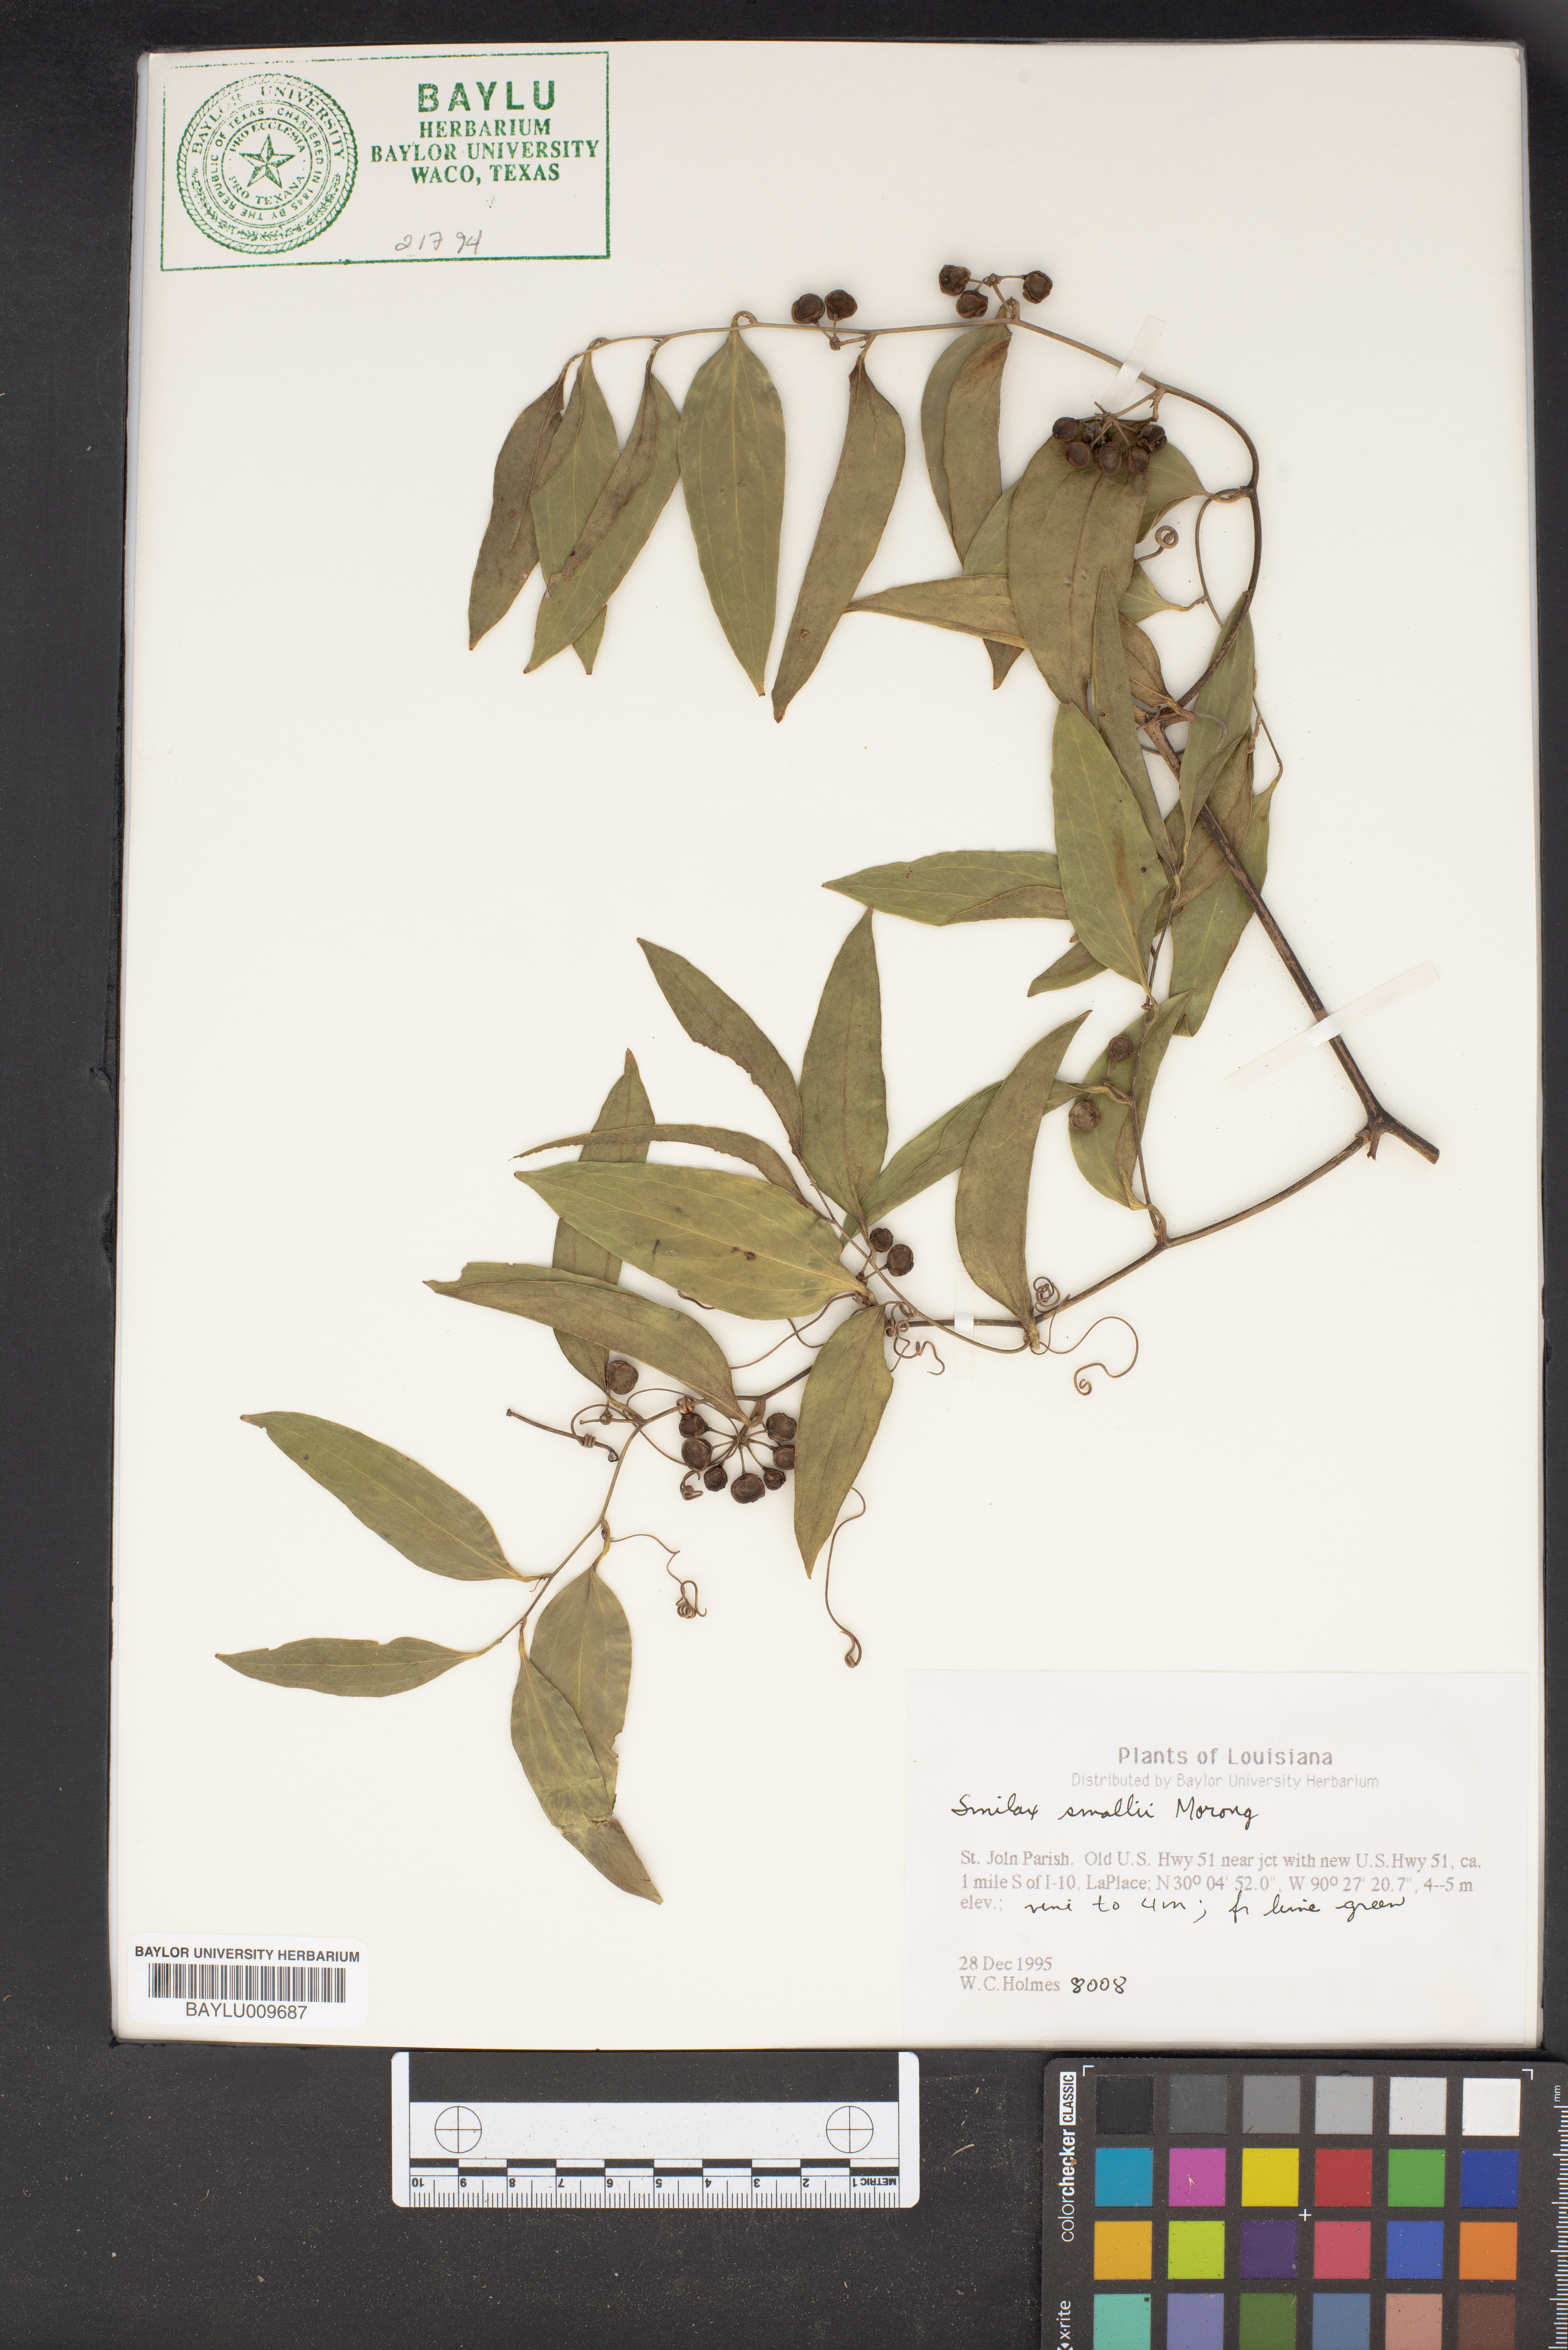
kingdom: Plantae
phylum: Tracheophyta
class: Liliopsida
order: Liliales
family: Smilacaceae
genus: Smilax
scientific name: Smilax maritima
